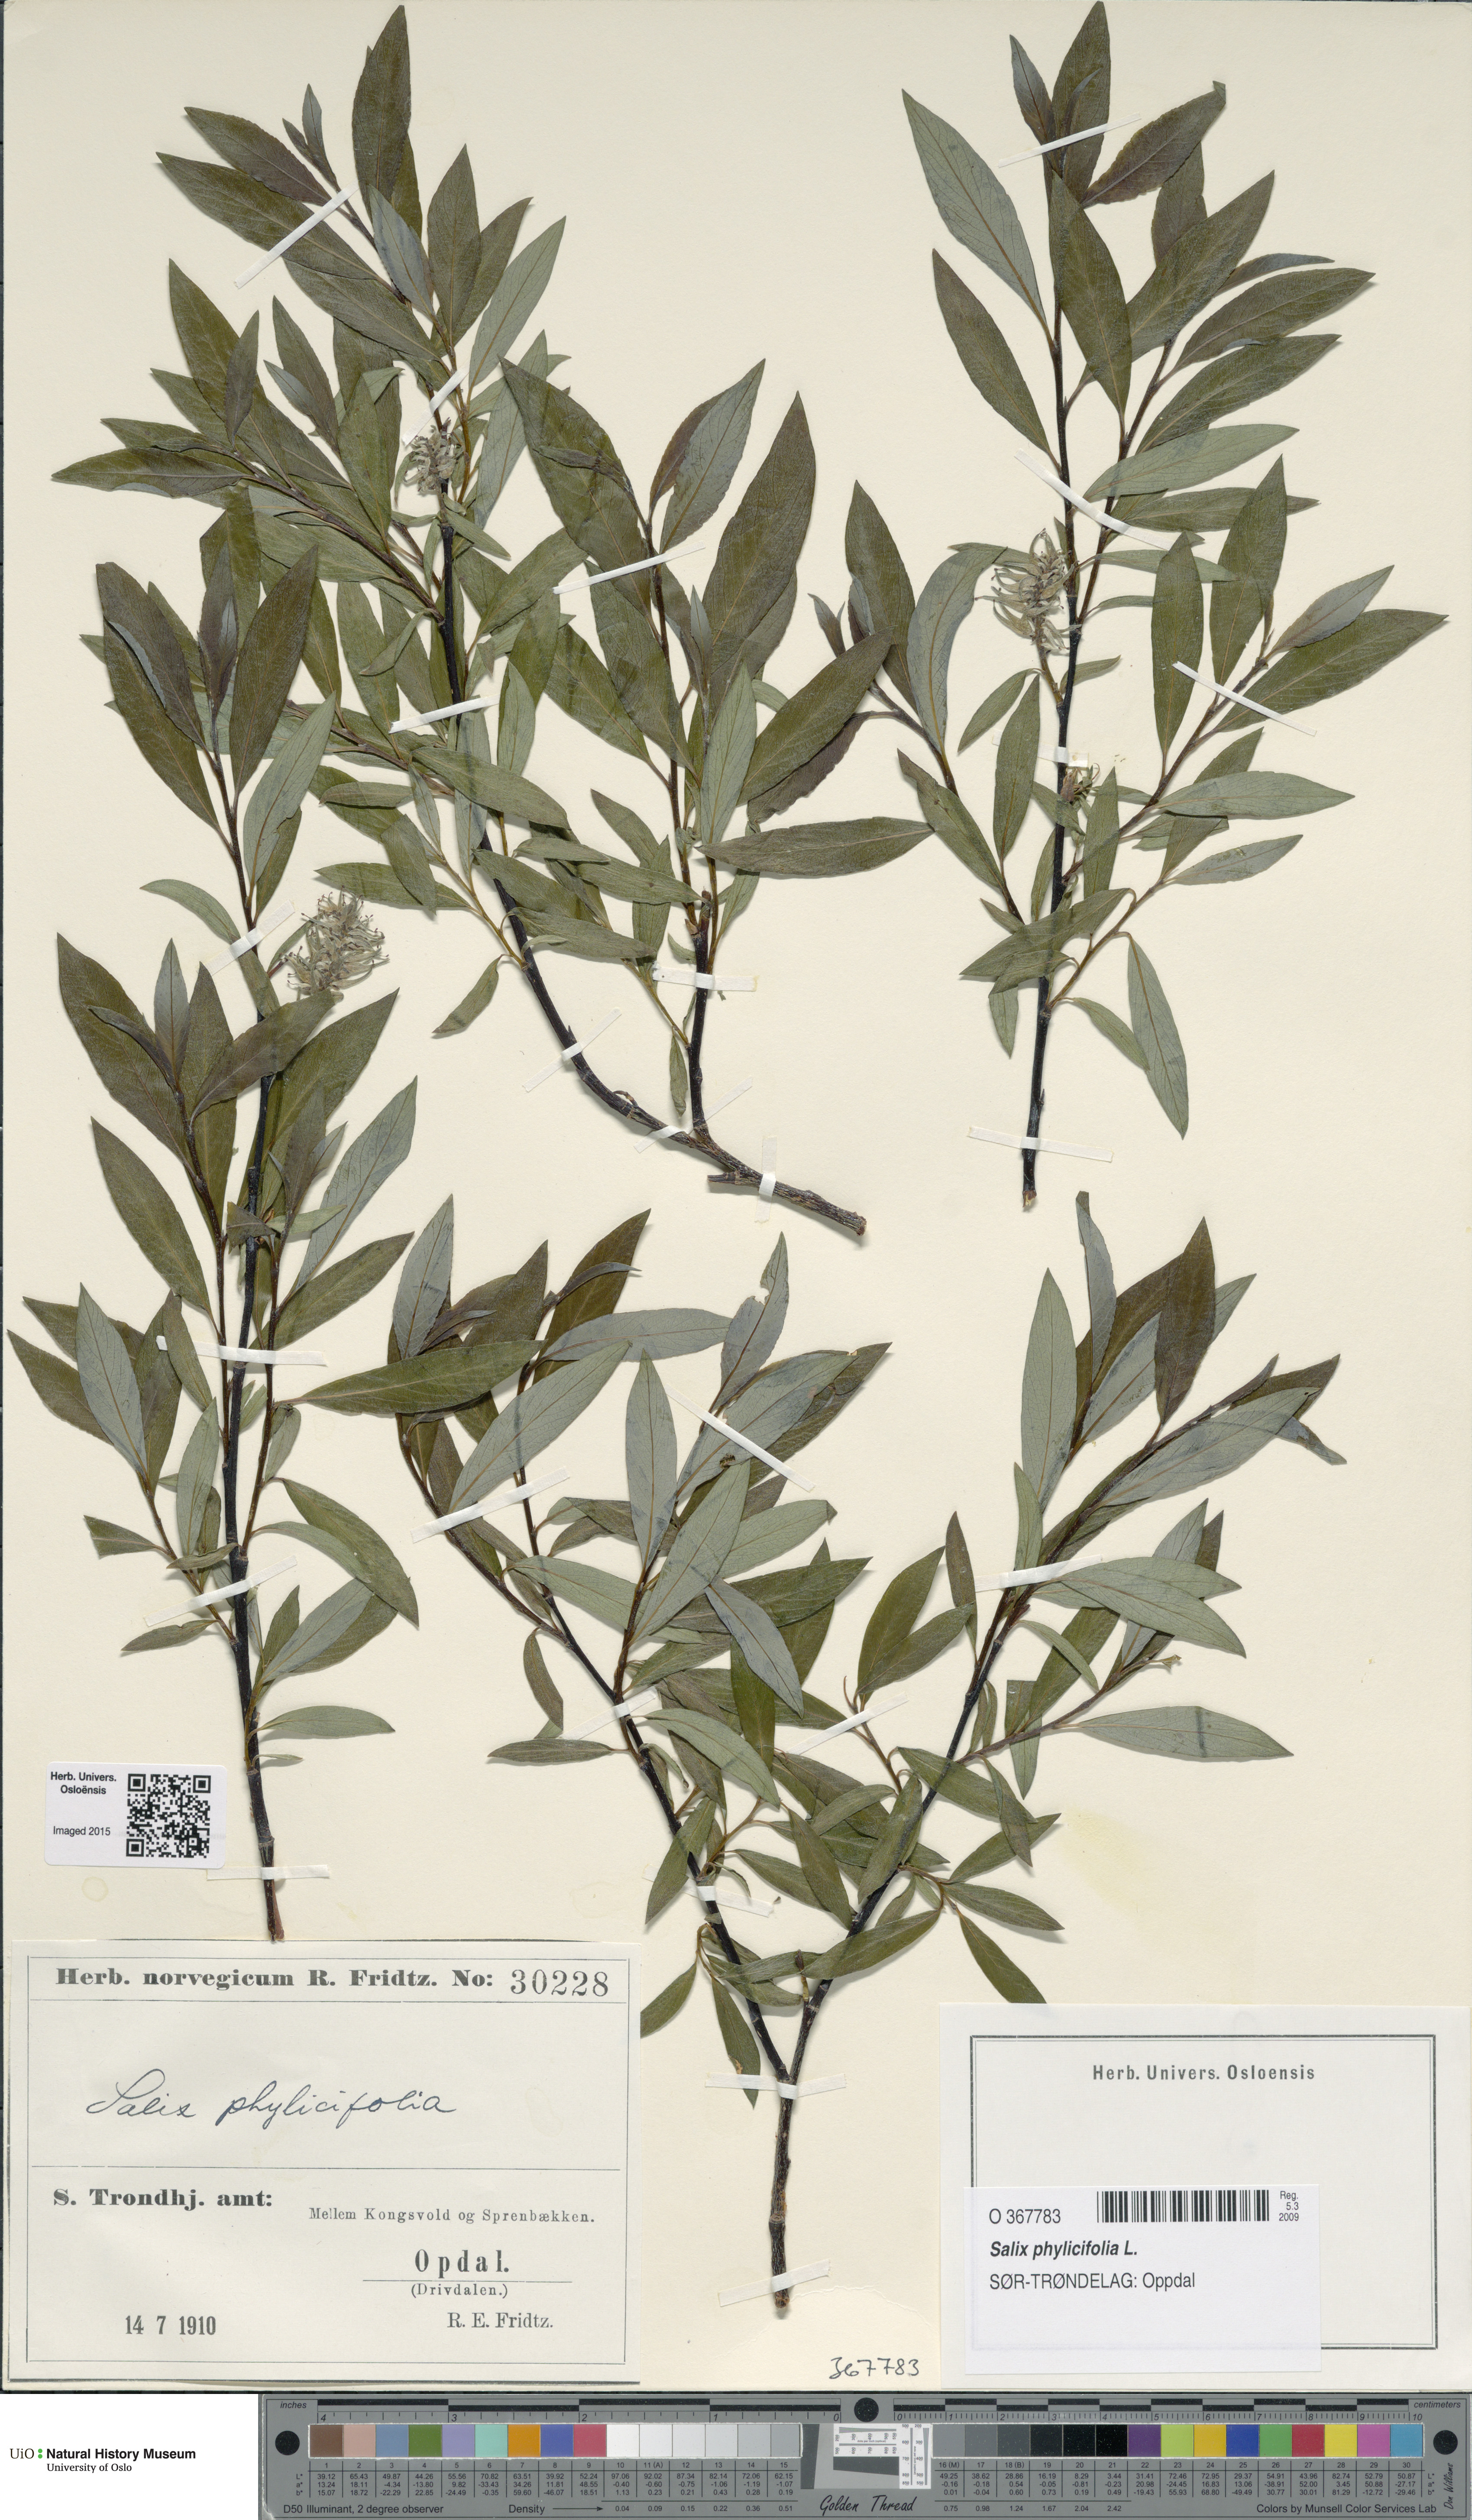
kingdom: Plantae
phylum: Tracheophyta
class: Magnoliopsida
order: Malpighiales
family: Salicaceae
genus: Salix
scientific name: Salix phylicifolia
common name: Tea-leaved willow
